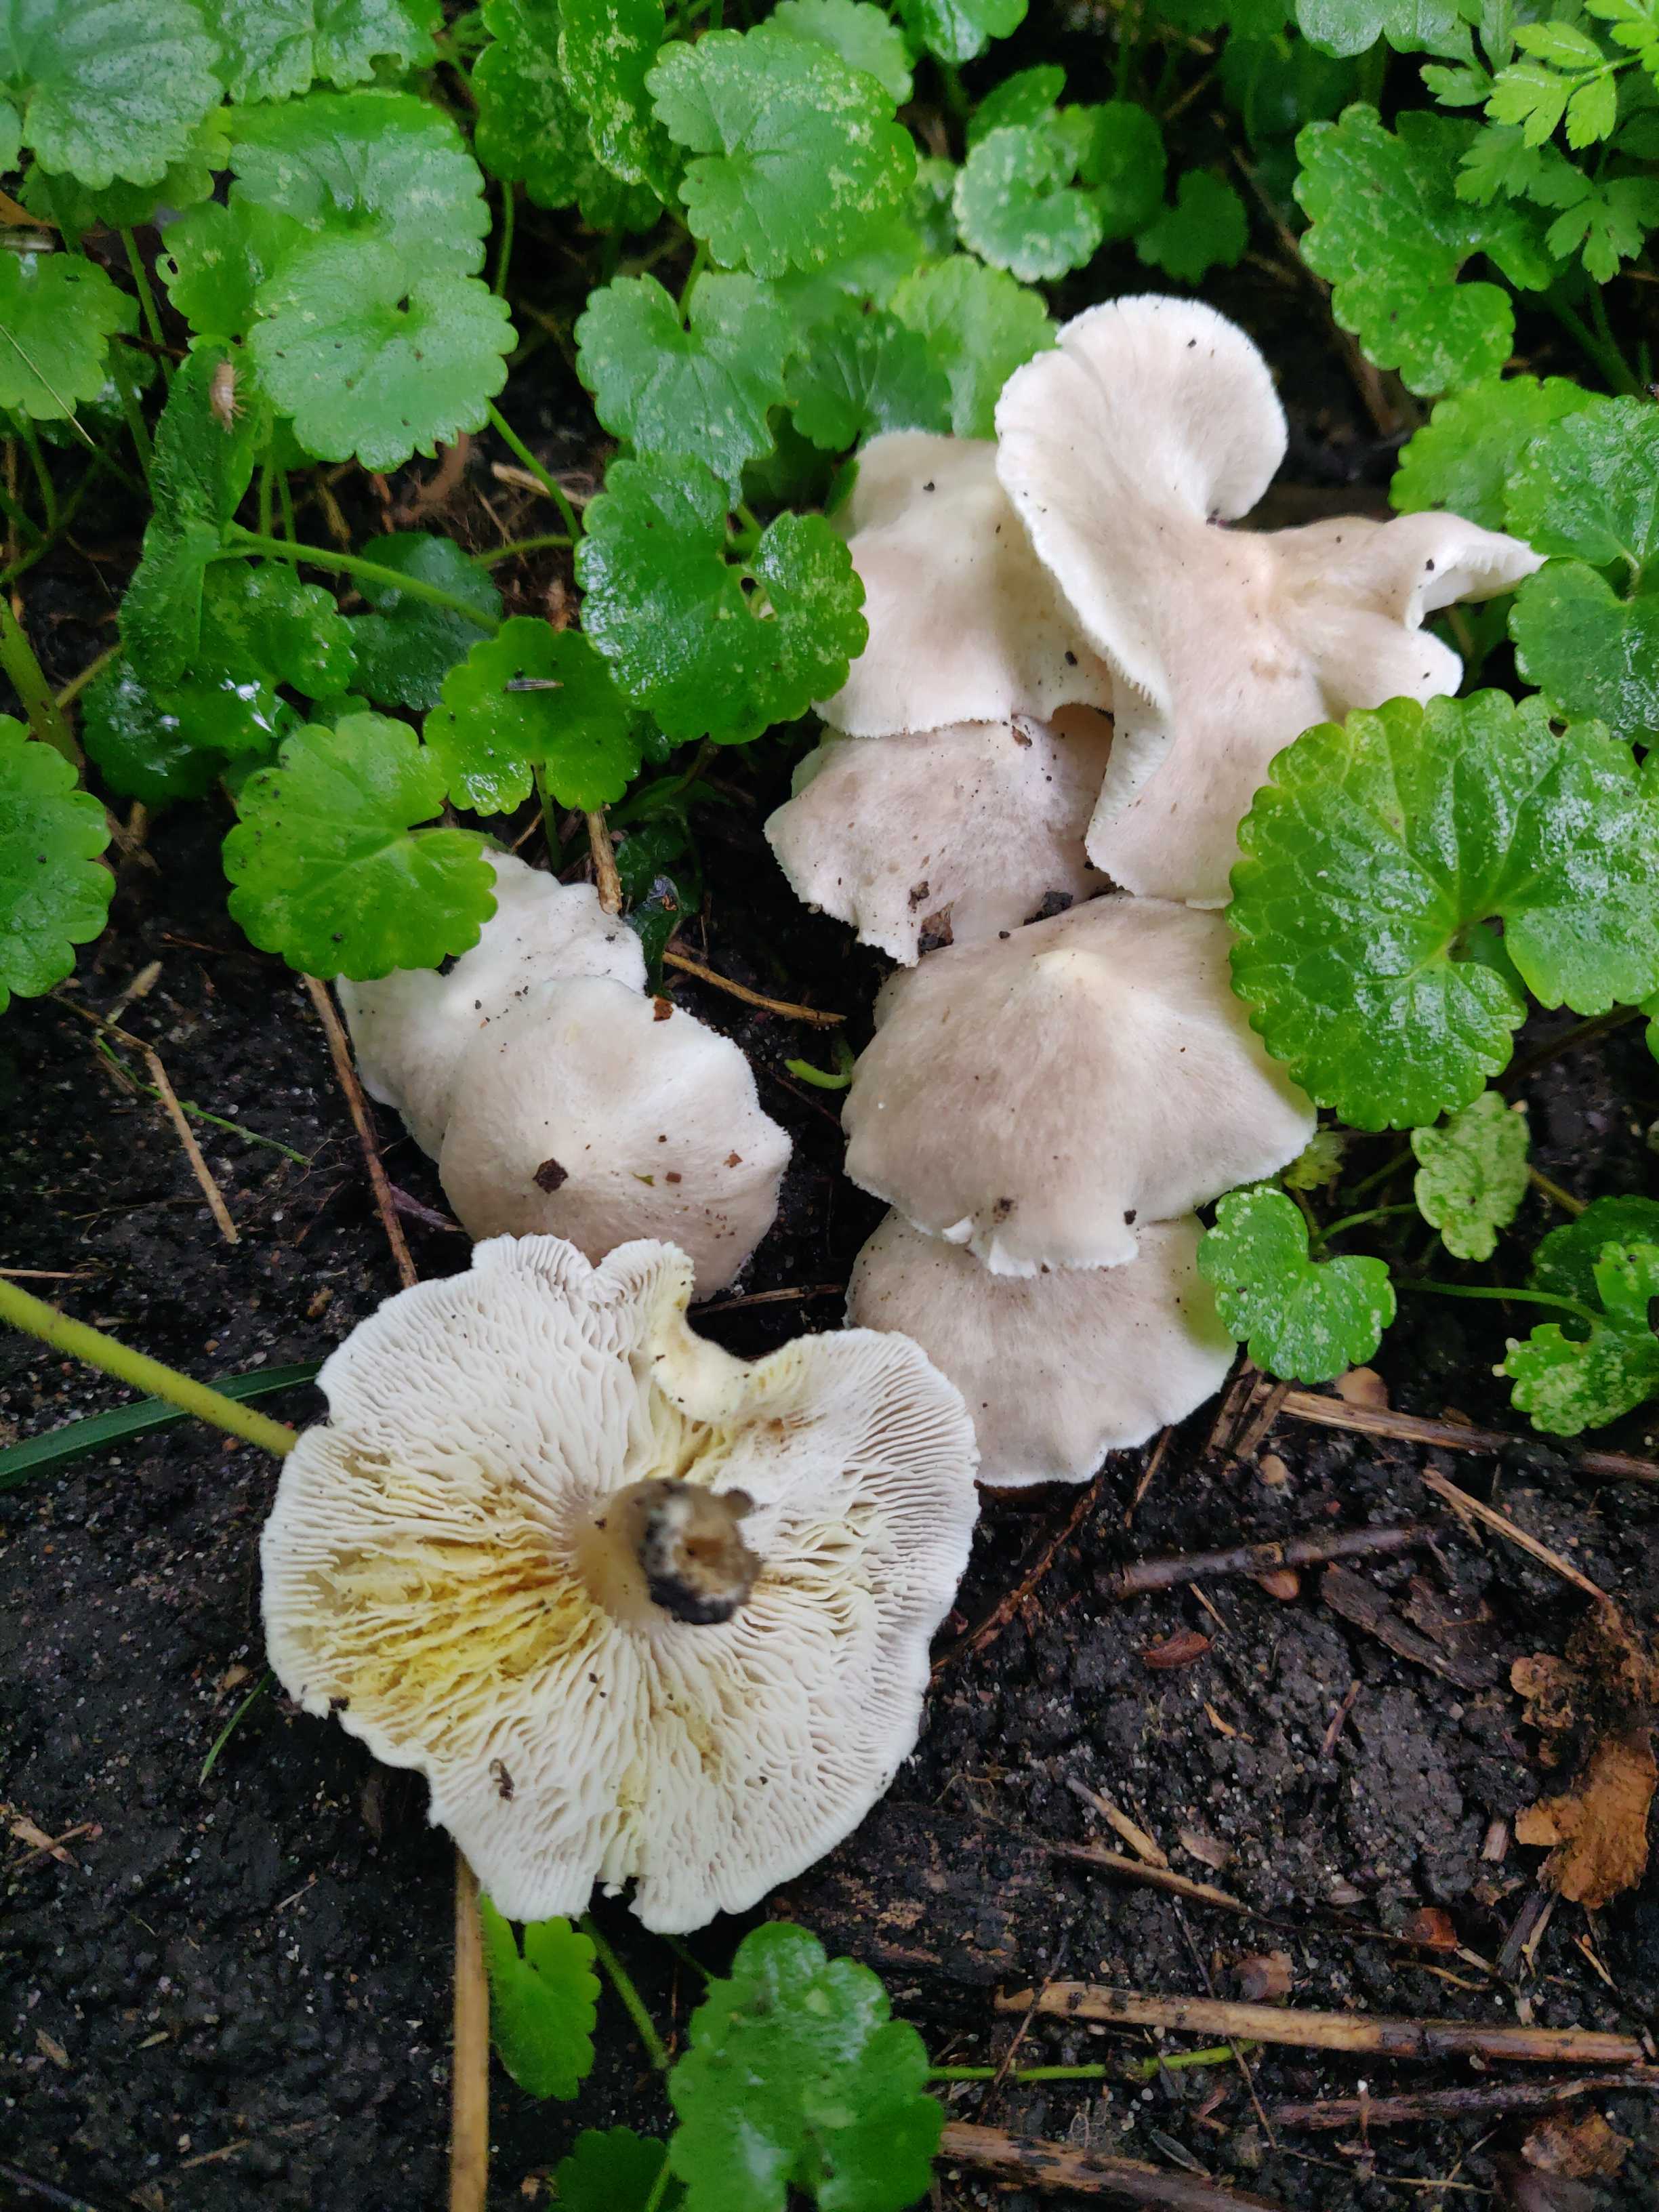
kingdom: Fungi
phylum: Basidiomycota
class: Agaricomycetes
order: Agaricales
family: Tricholomataceae
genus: Tricholoma
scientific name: Tricholoma scalpturatum
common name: gulplettet ridderhat
